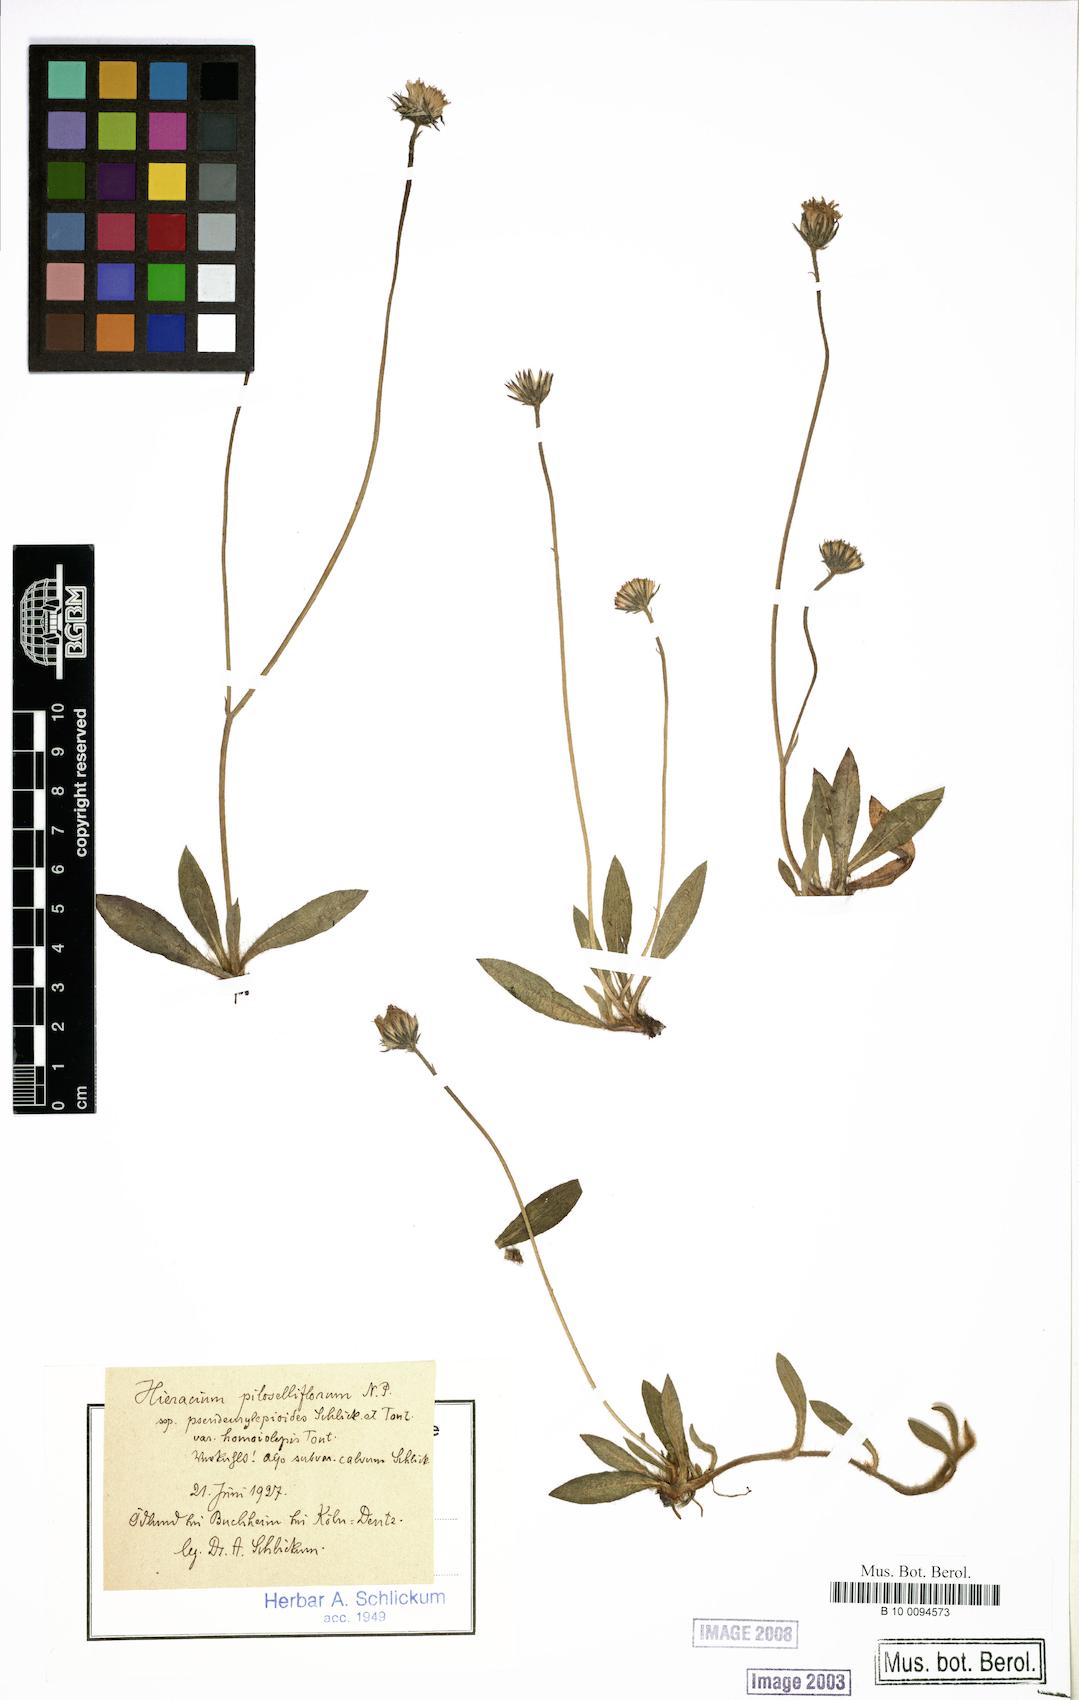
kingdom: Plantae
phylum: Tracheophyta
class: Magnoliopsida
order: Asterales
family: Asteraceae
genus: Pilosella
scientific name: Pilosella piloselliflora
